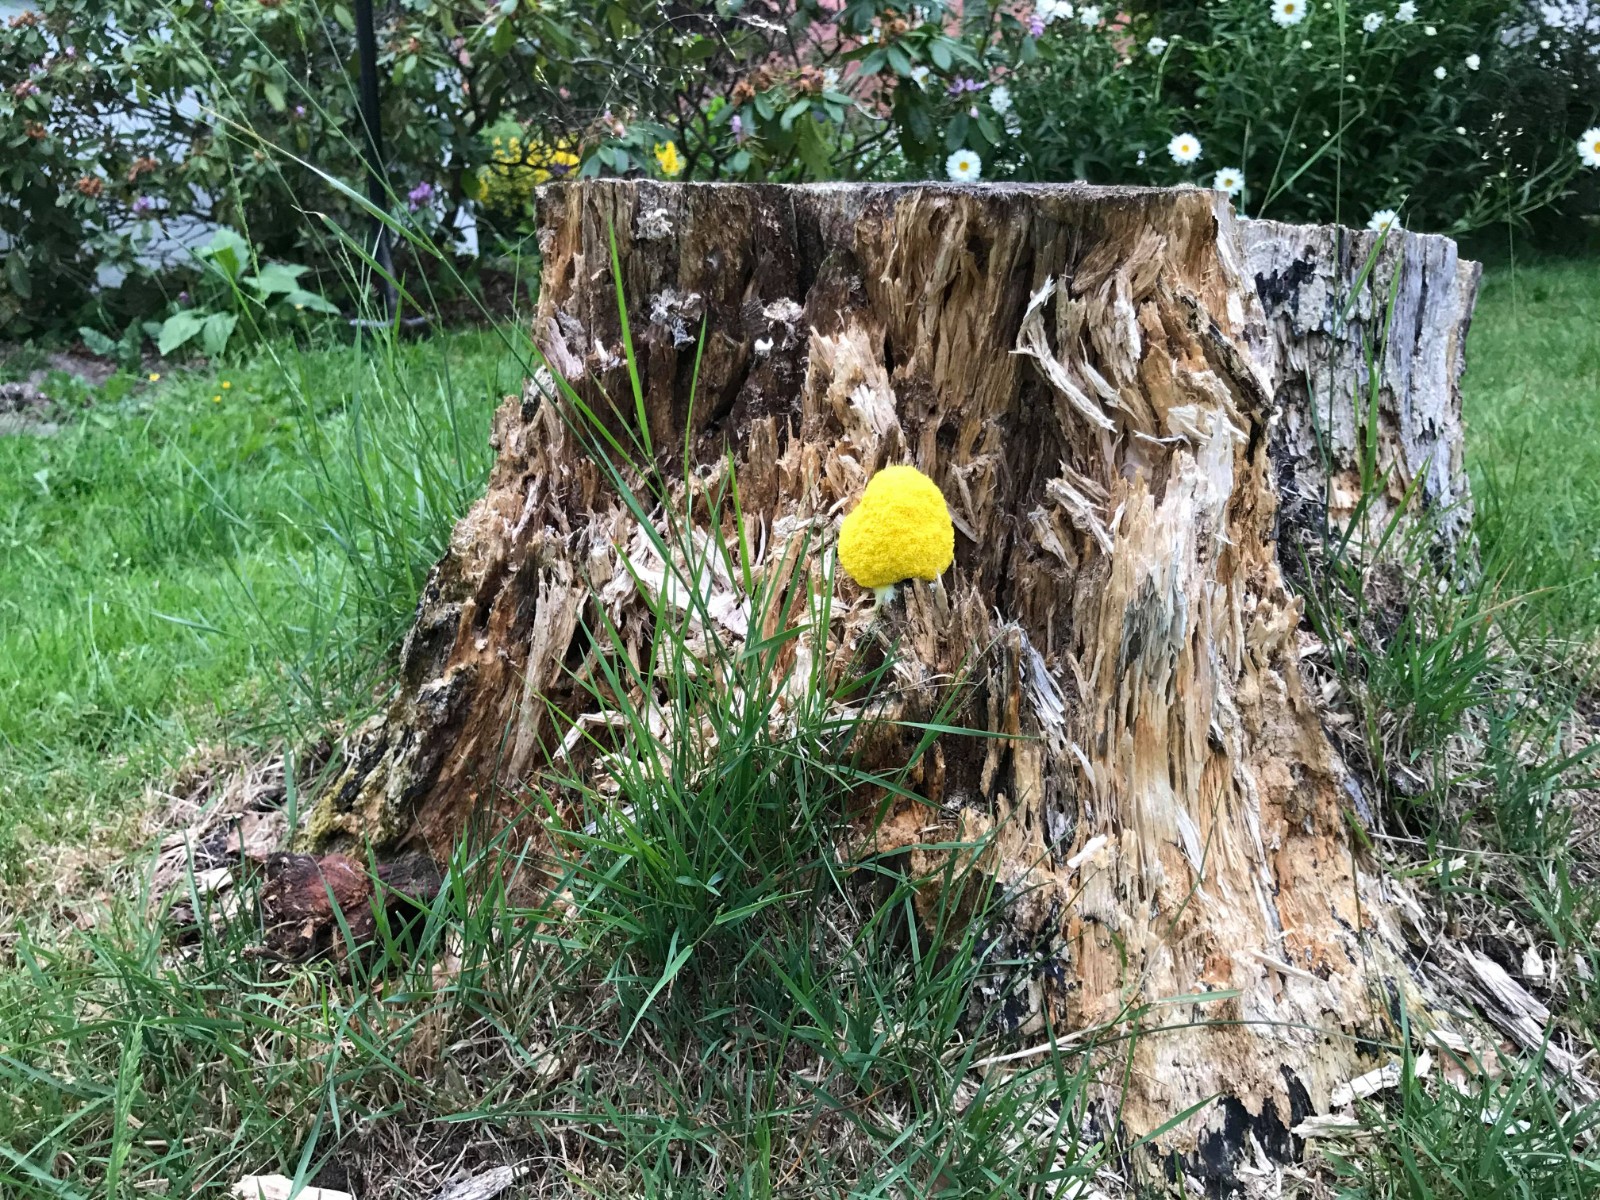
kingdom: Protozoa
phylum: Mycetozoa
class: Myxomycetes
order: Physarales
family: Physaraceae
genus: Fuligo
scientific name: Fuligo septica
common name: gul troldsmør
